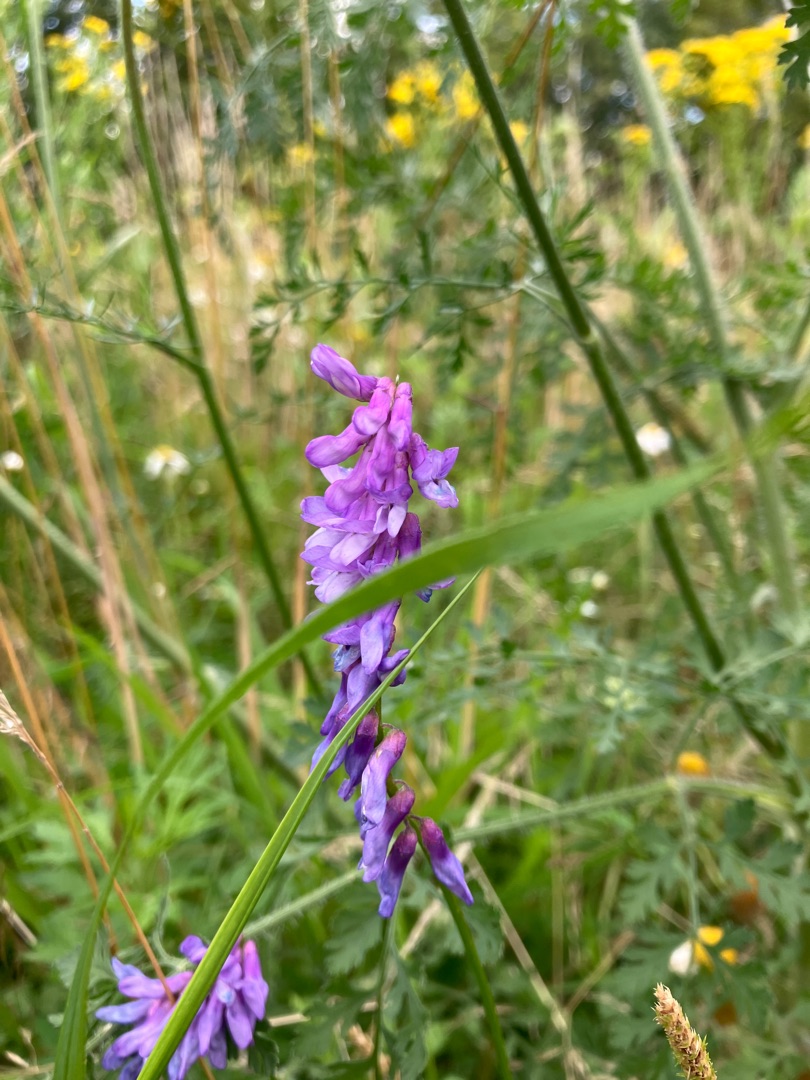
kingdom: Plantae
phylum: Tracheophyta
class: Magnoliopsida
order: Fabales
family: Fabaceae
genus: Vicia
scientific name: Vicia cracca
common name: Muse-vikke
